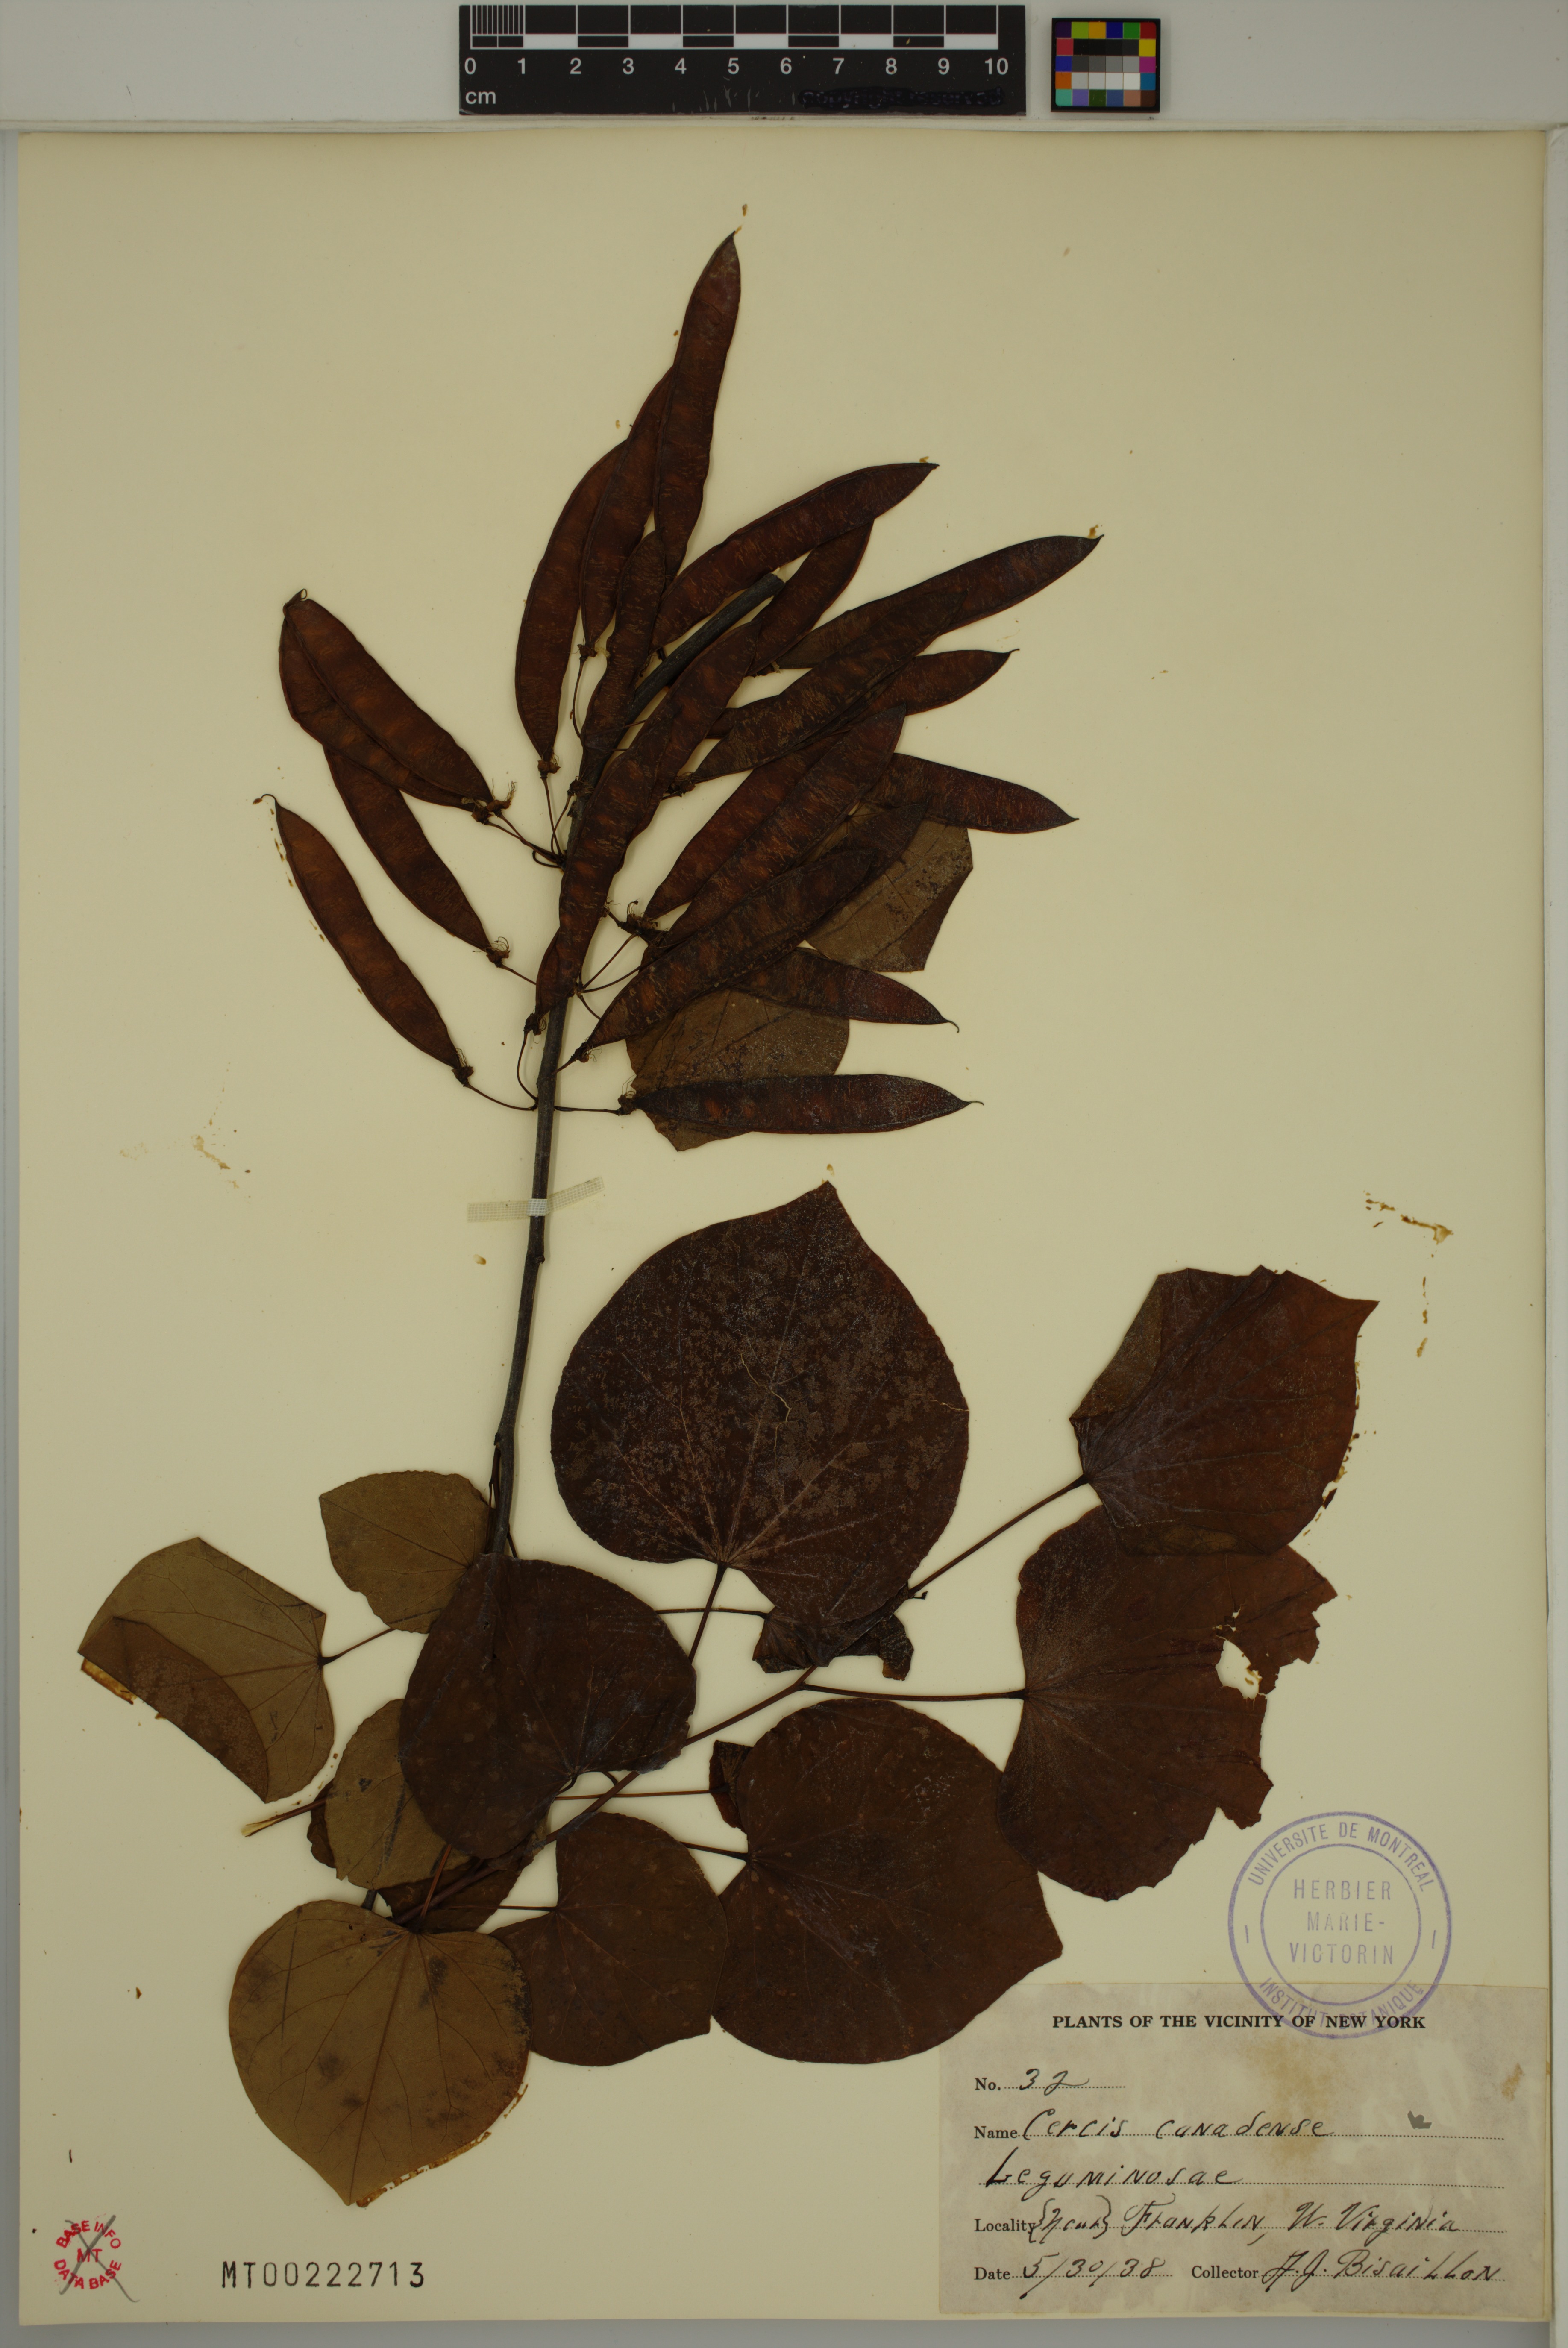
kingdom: Plantae
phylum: Tracheophyta
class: Magnoliopsida
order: Fabales
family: Fabaceae
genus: Cercis
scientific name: Cercis canadensis
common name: Eastern redbud
